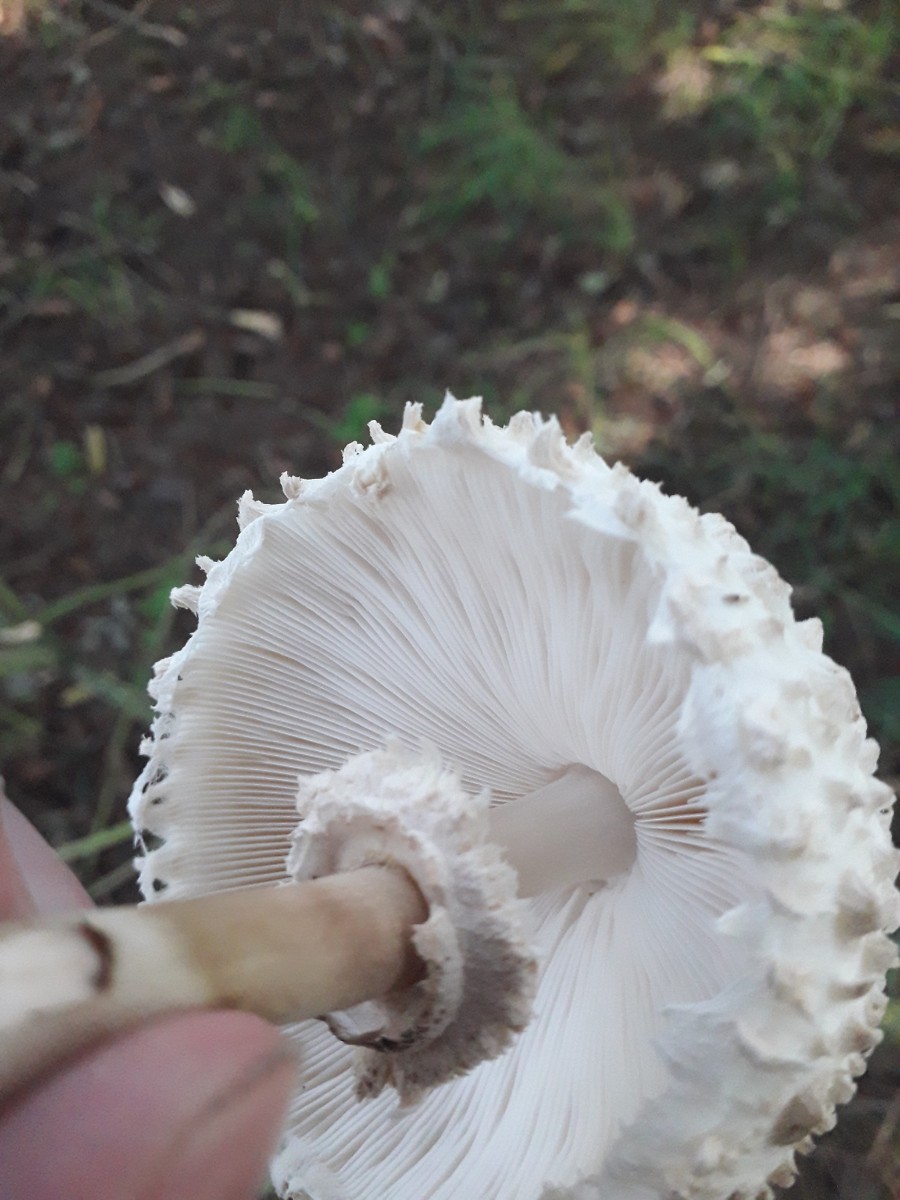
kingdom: Fungi
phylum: Basidiomycota
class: Agaricomycetes
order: Agaricales
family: Agaricaceae
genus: Leucoagaricus
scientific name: Leucoagaricus nympharum
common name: gran-silkehat
